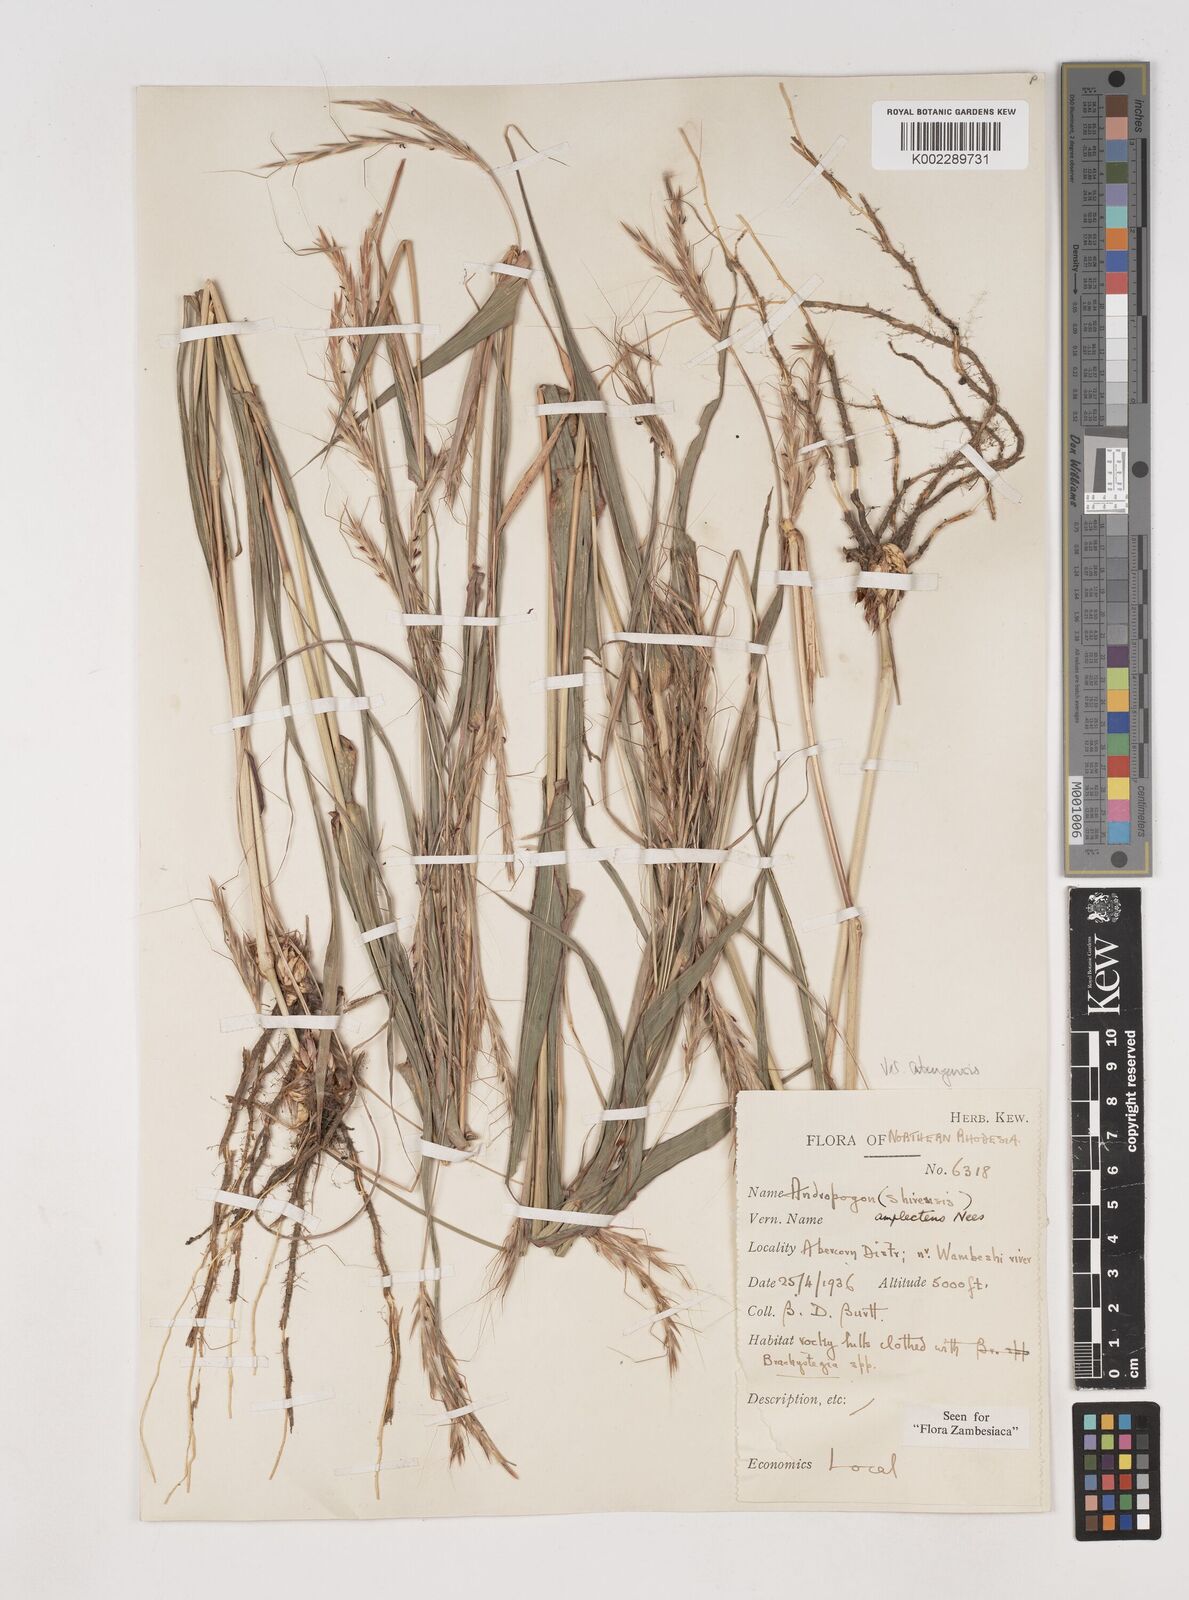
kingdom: Plantae
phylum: Tracheophyta
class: Liliopsida
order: Poales
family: Poaceae
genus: Diheteropogon
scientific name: Diheteropogon amplectens
